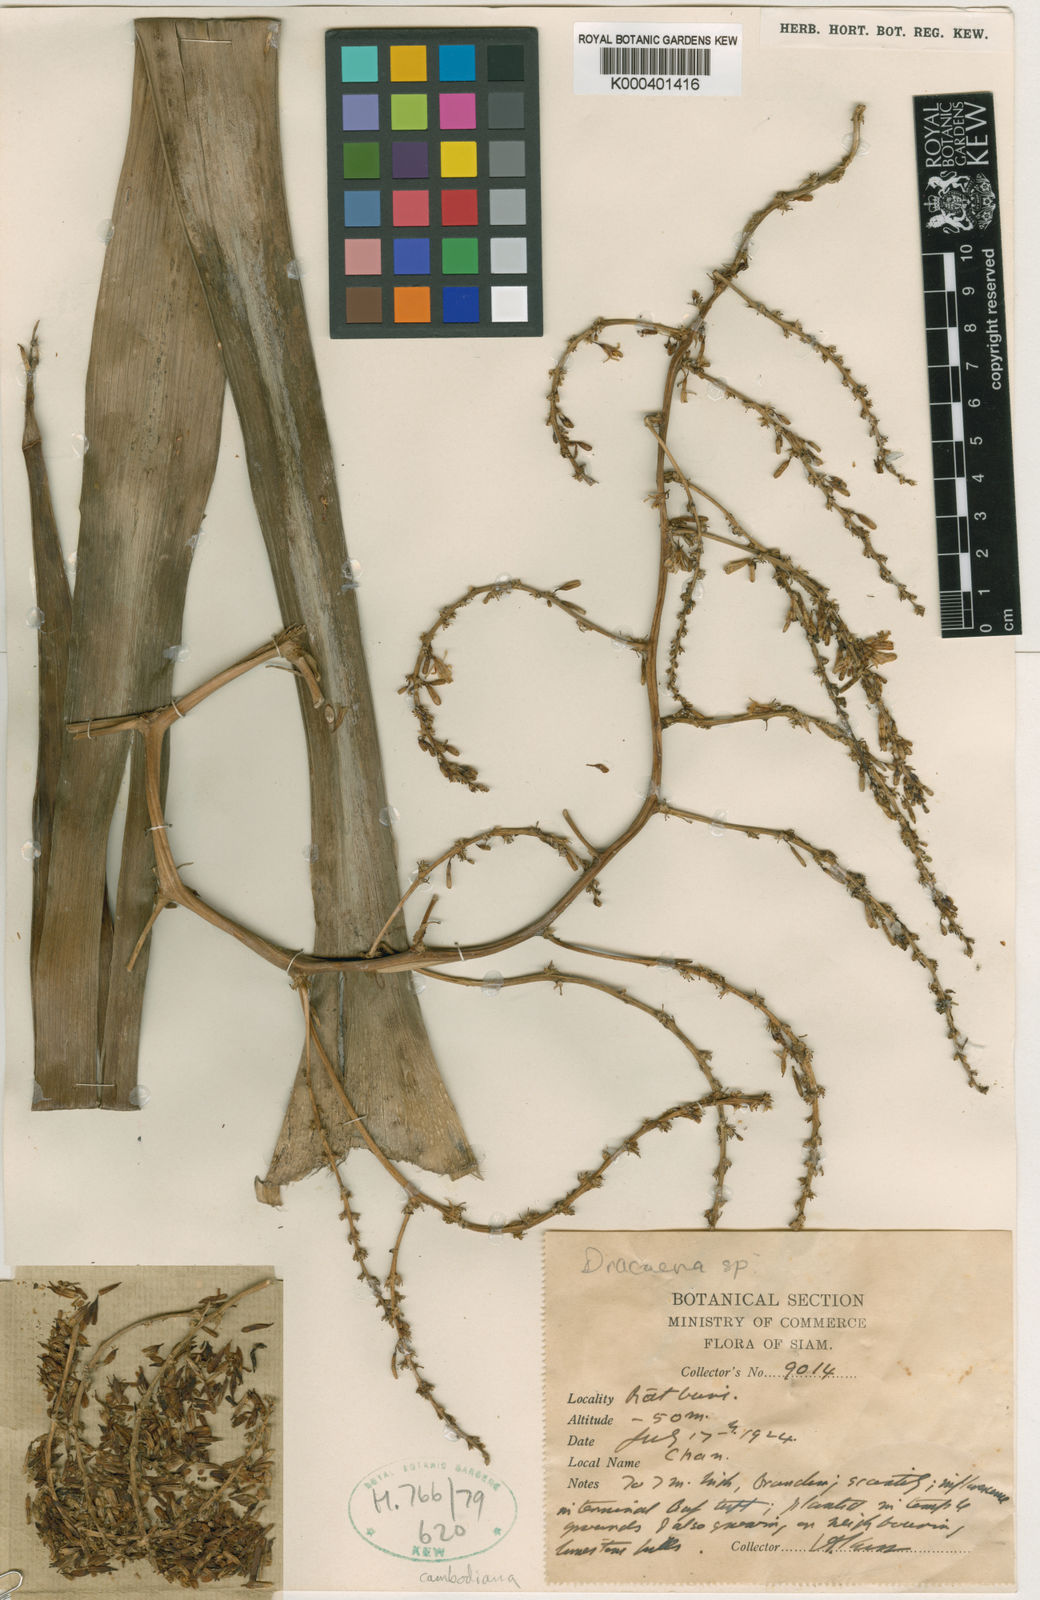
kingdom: Plantae
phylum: Tracheophyta
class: Liliopsida
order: Asparagales
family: Asparagaceae
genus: Dracaena
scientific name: Dracaena cambodiana
